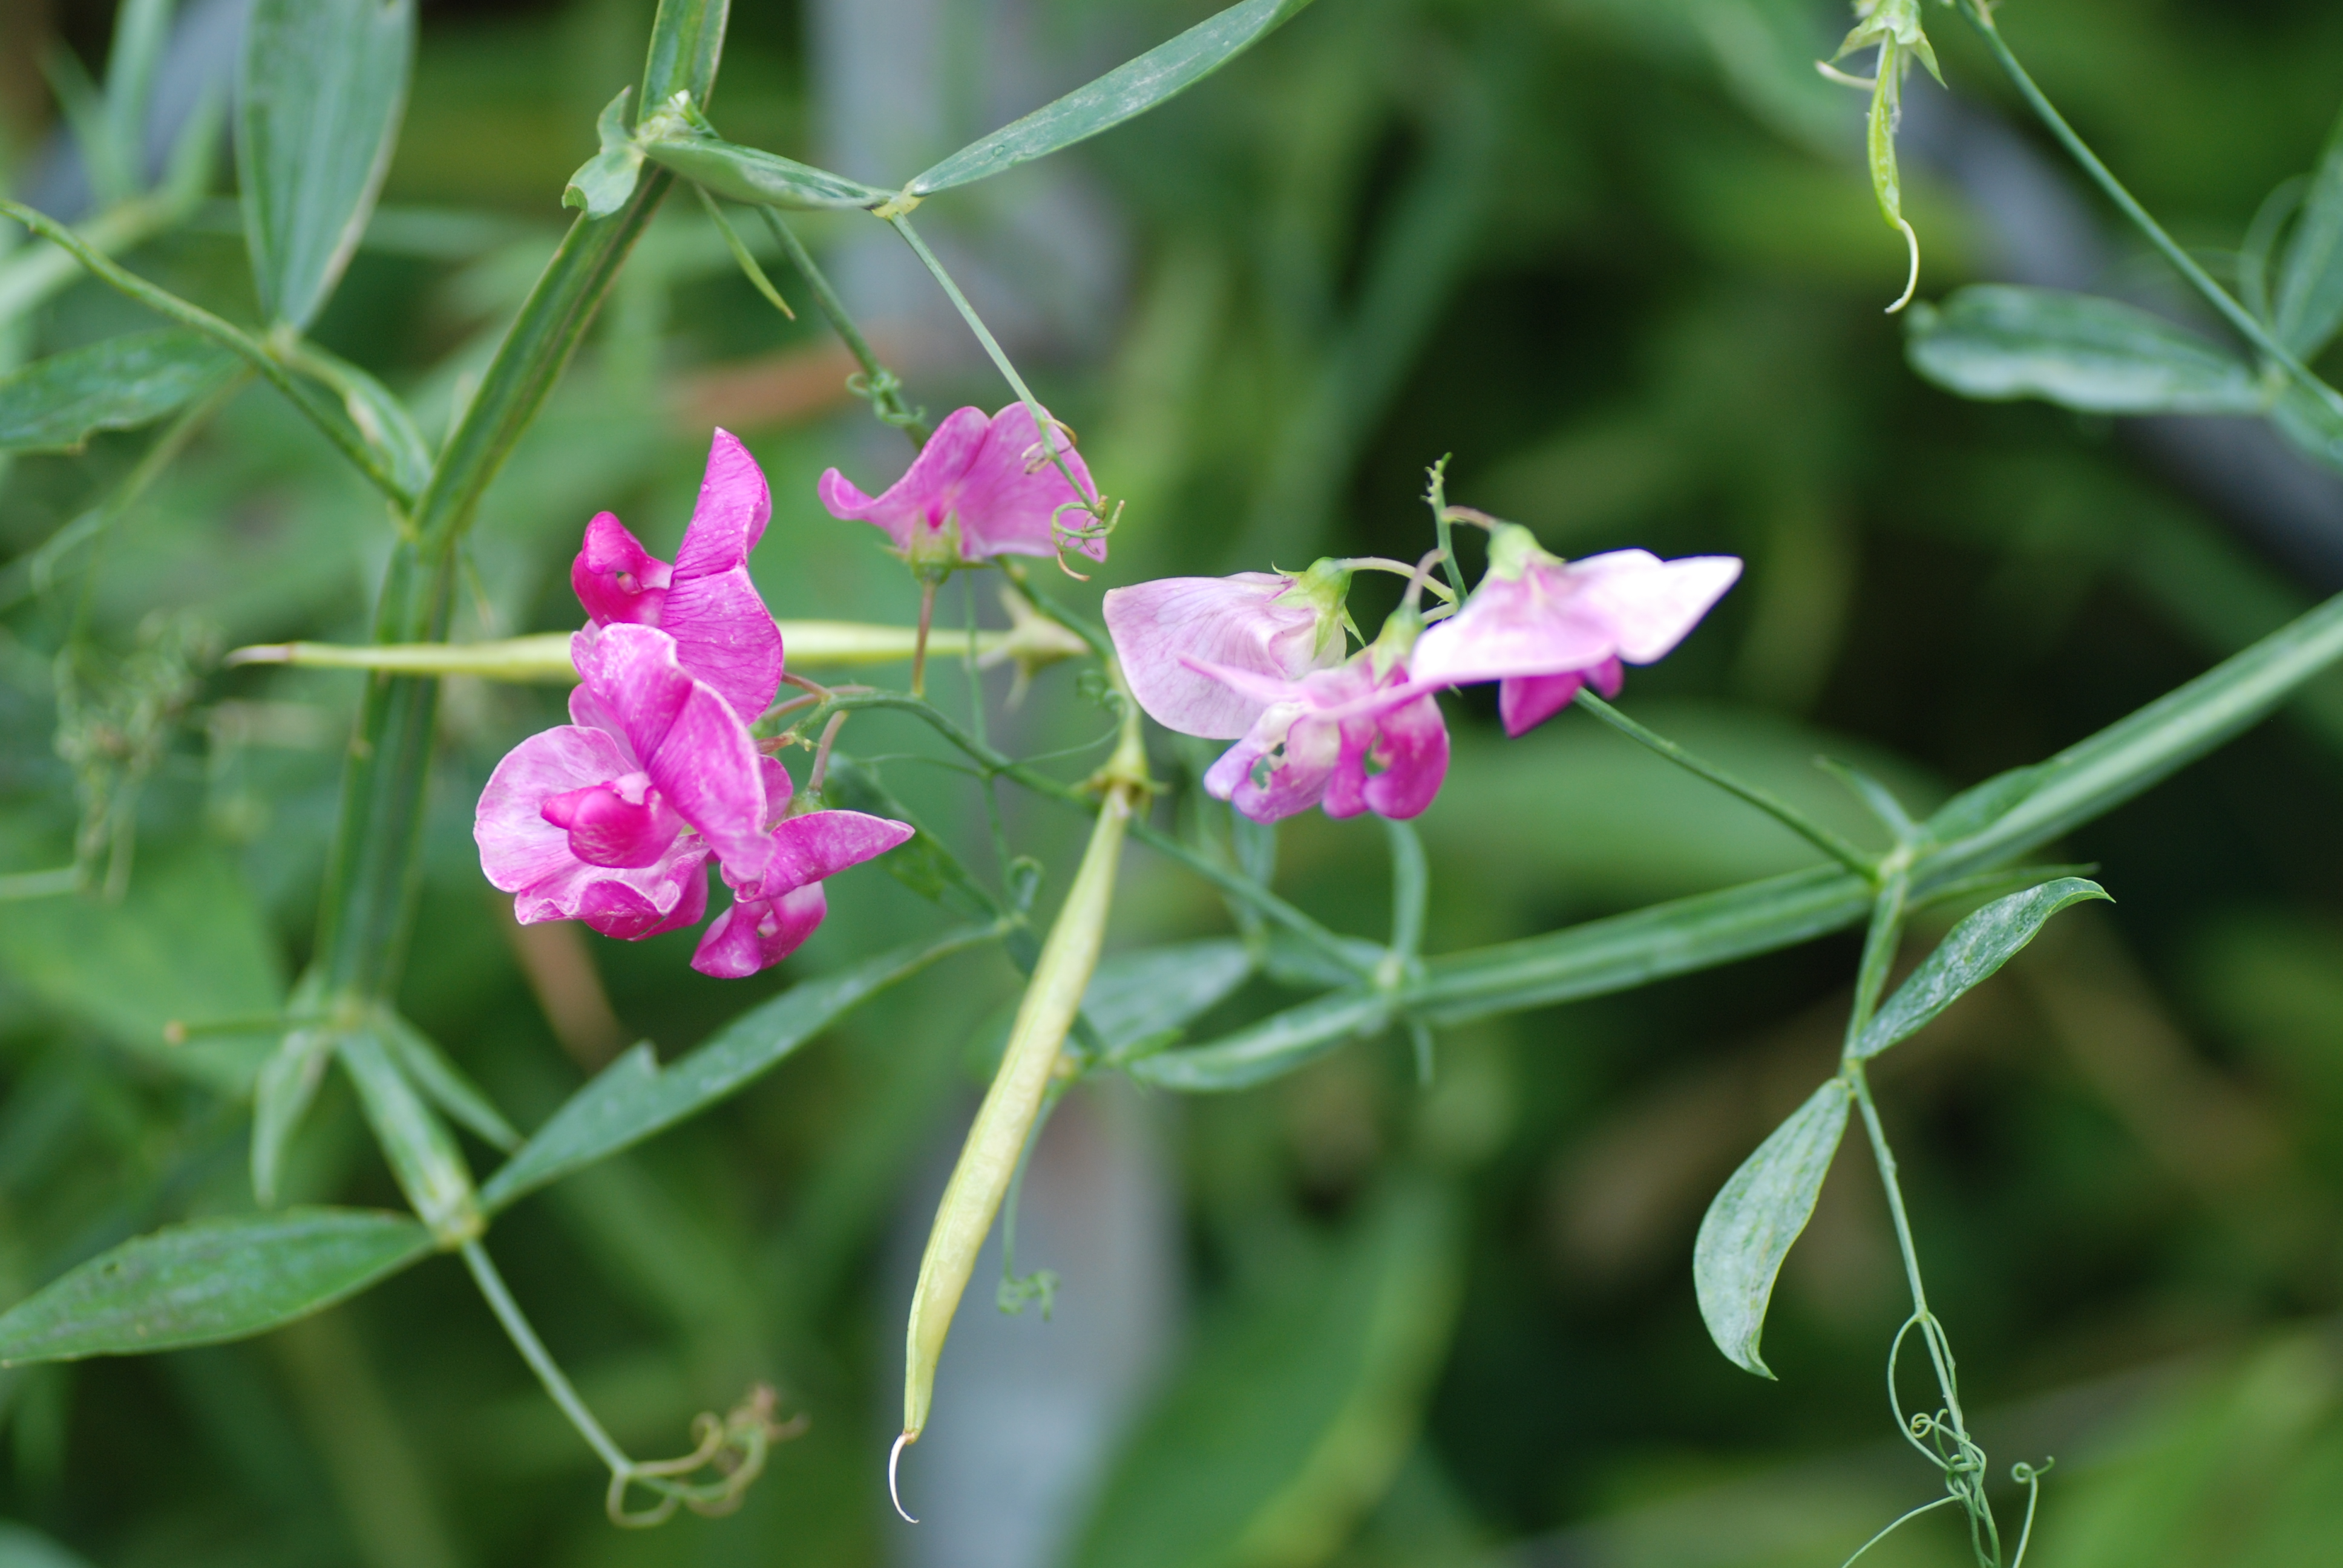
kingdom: Plantae
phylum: Tracheophyta
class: Magnoliopsida
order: Fabales
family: Fabaceae
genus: Lathyrus
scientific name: Lathyrus latifolius
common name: Perennial pea
